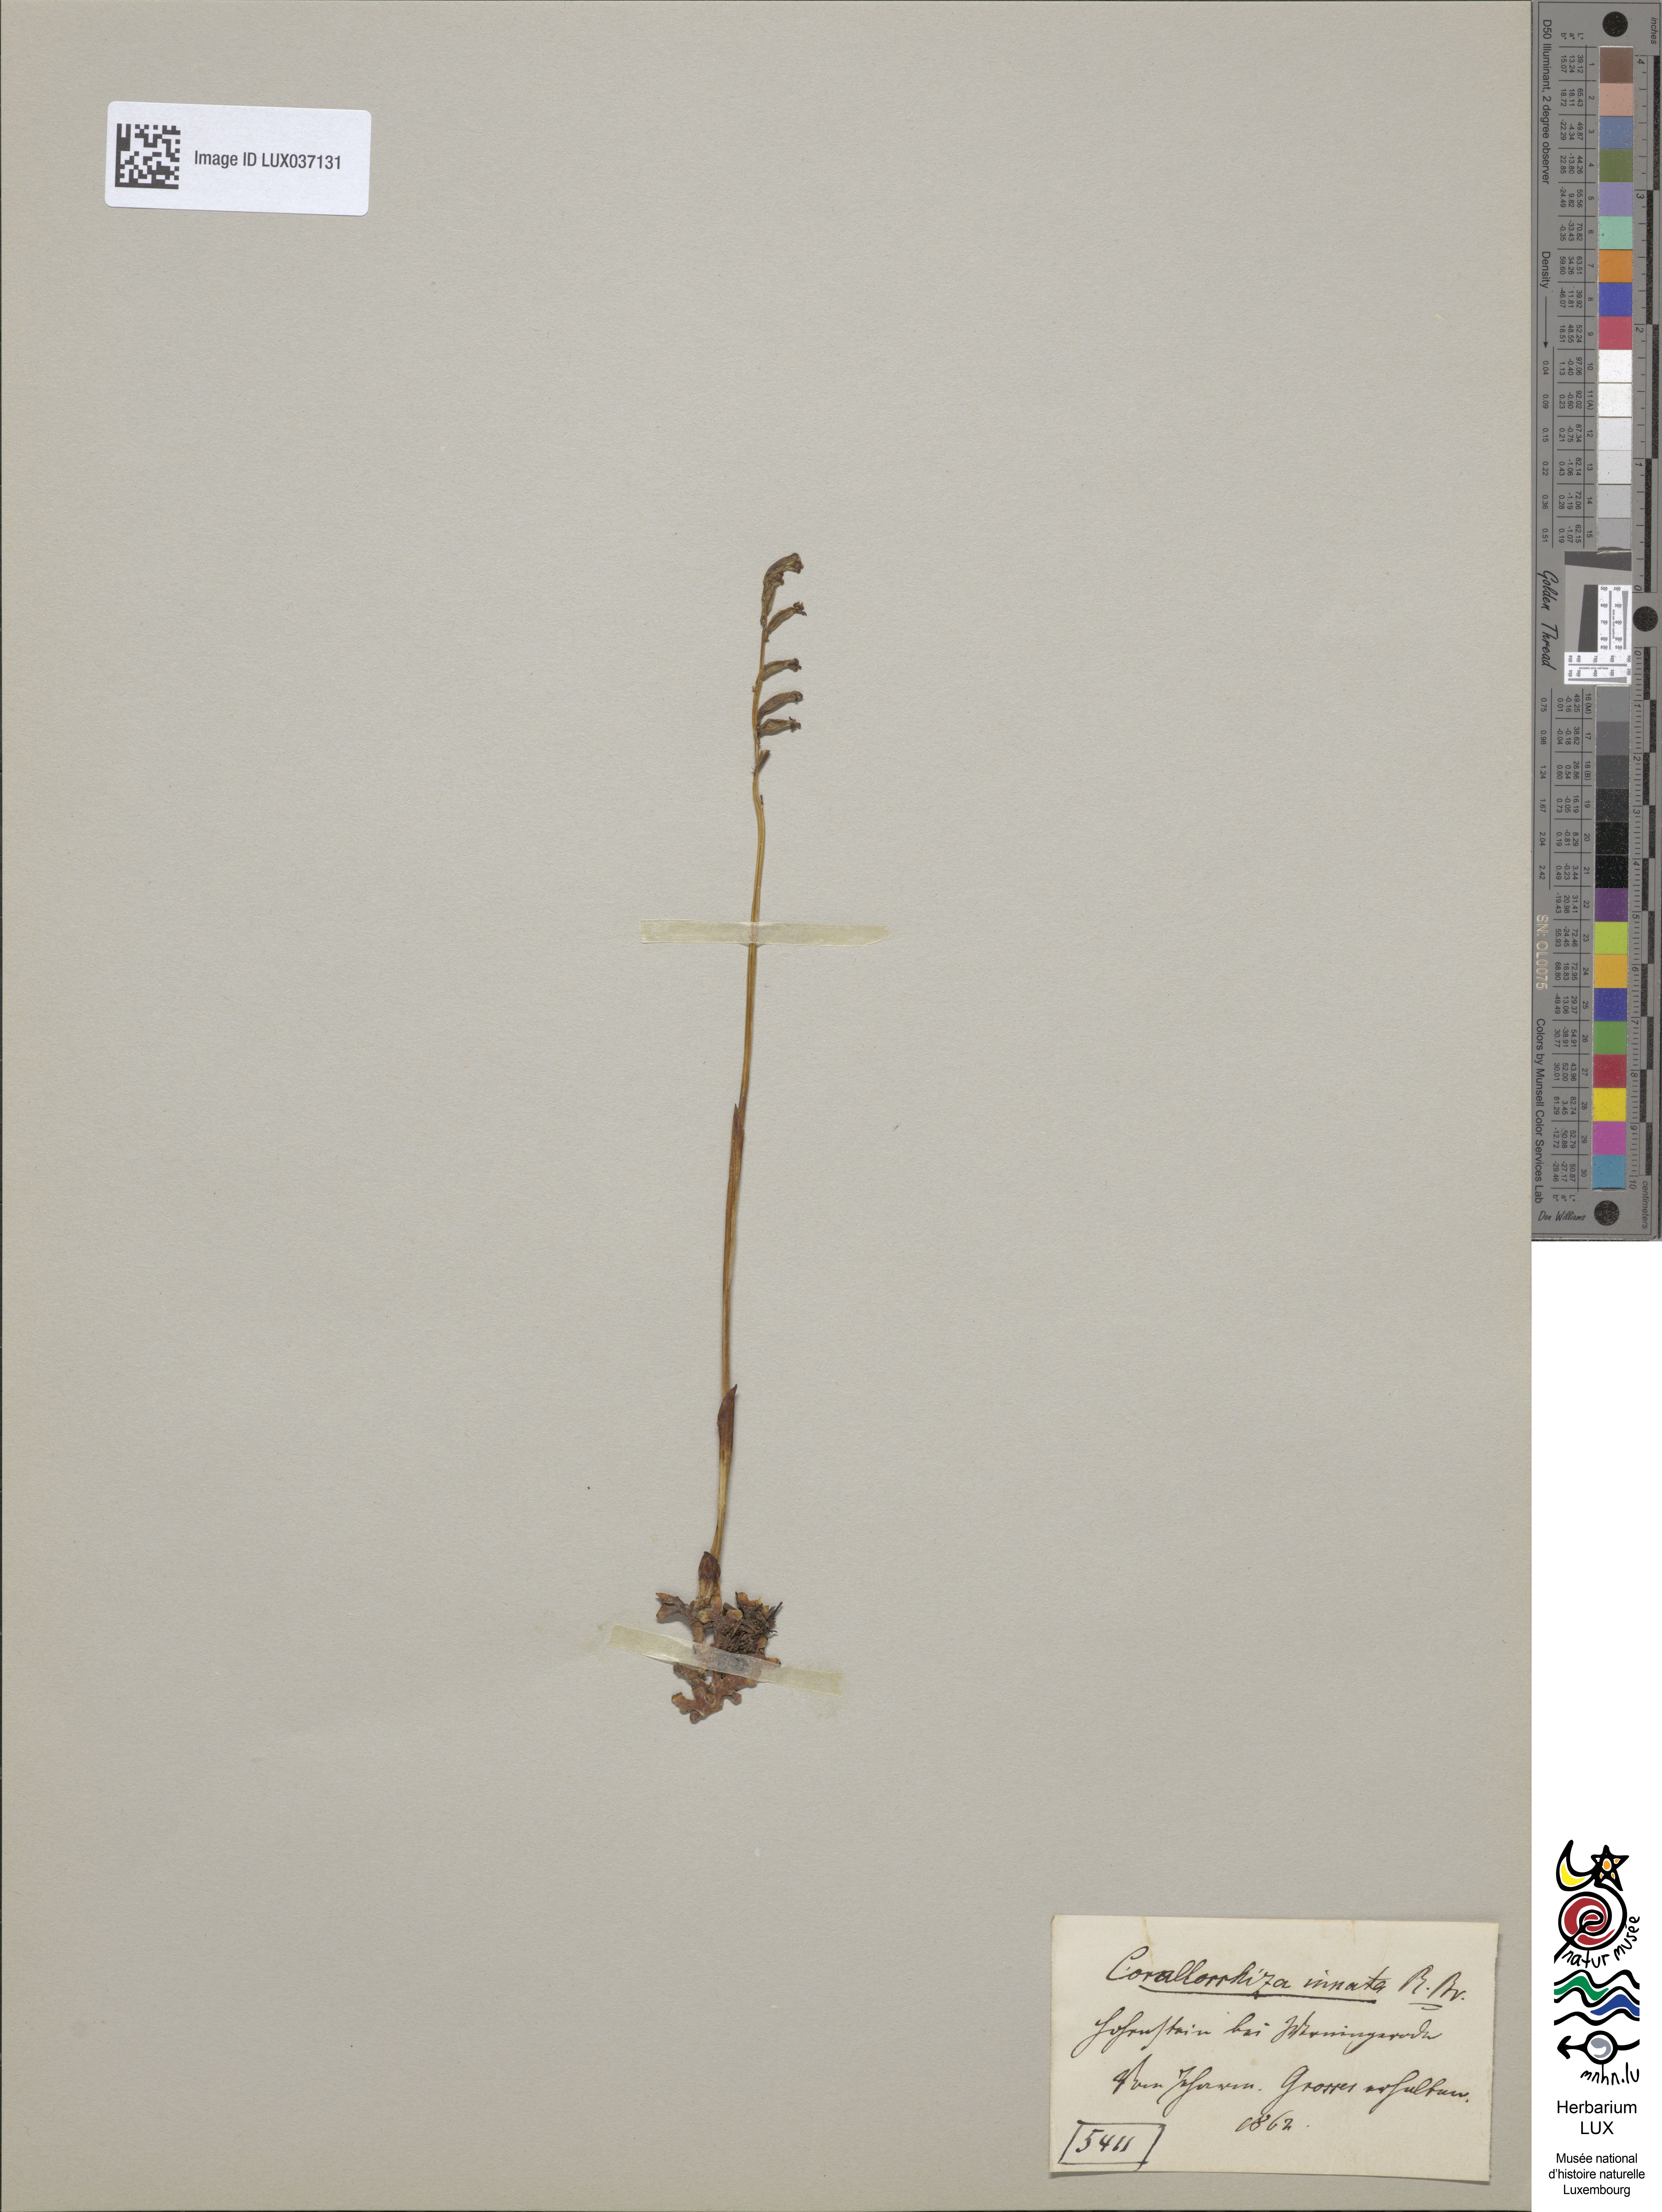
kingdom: Plantae
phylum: Tracheophyta
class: Liliopsida
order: Asparagales
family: Orchidaceae
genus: Corallorhiza
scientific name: Corallorhiza trifida
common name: Yellow coralroot
